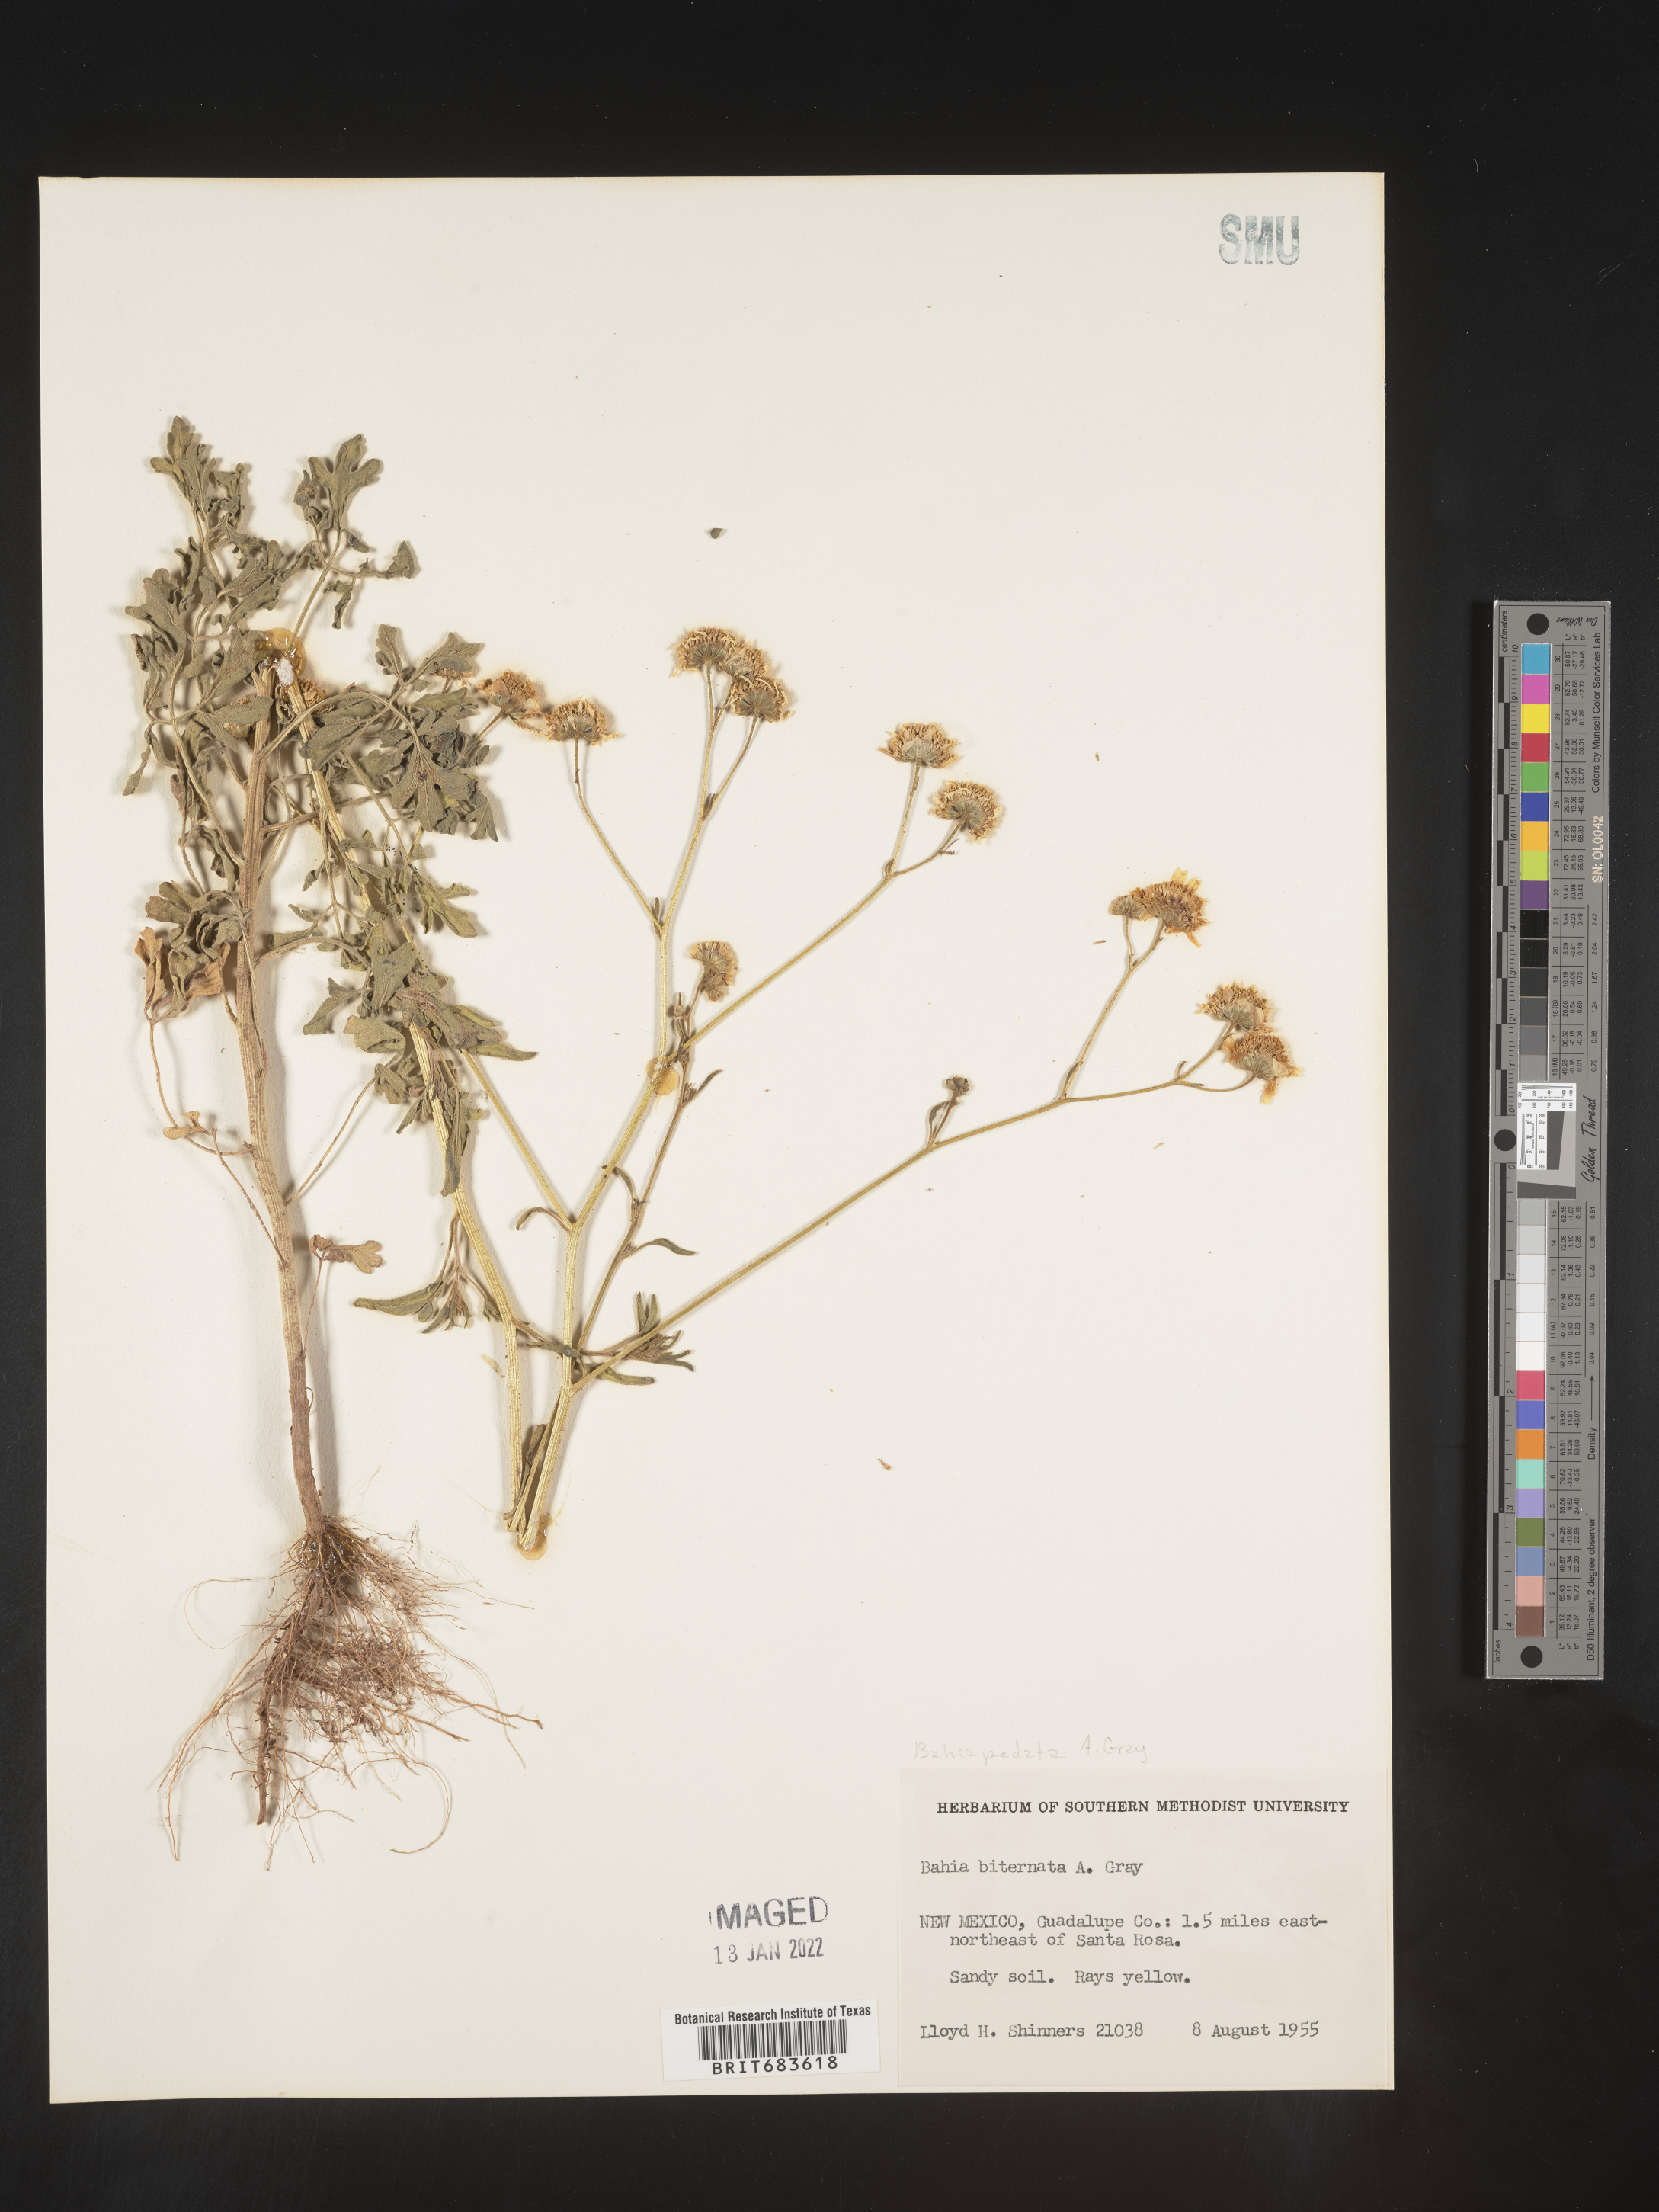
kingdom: Plantae
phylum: Tracheophyta
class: Magnoliopsida
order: Asterales
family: Asteraceae
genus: Hymenothrix
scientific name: Hymenothrix pedata
